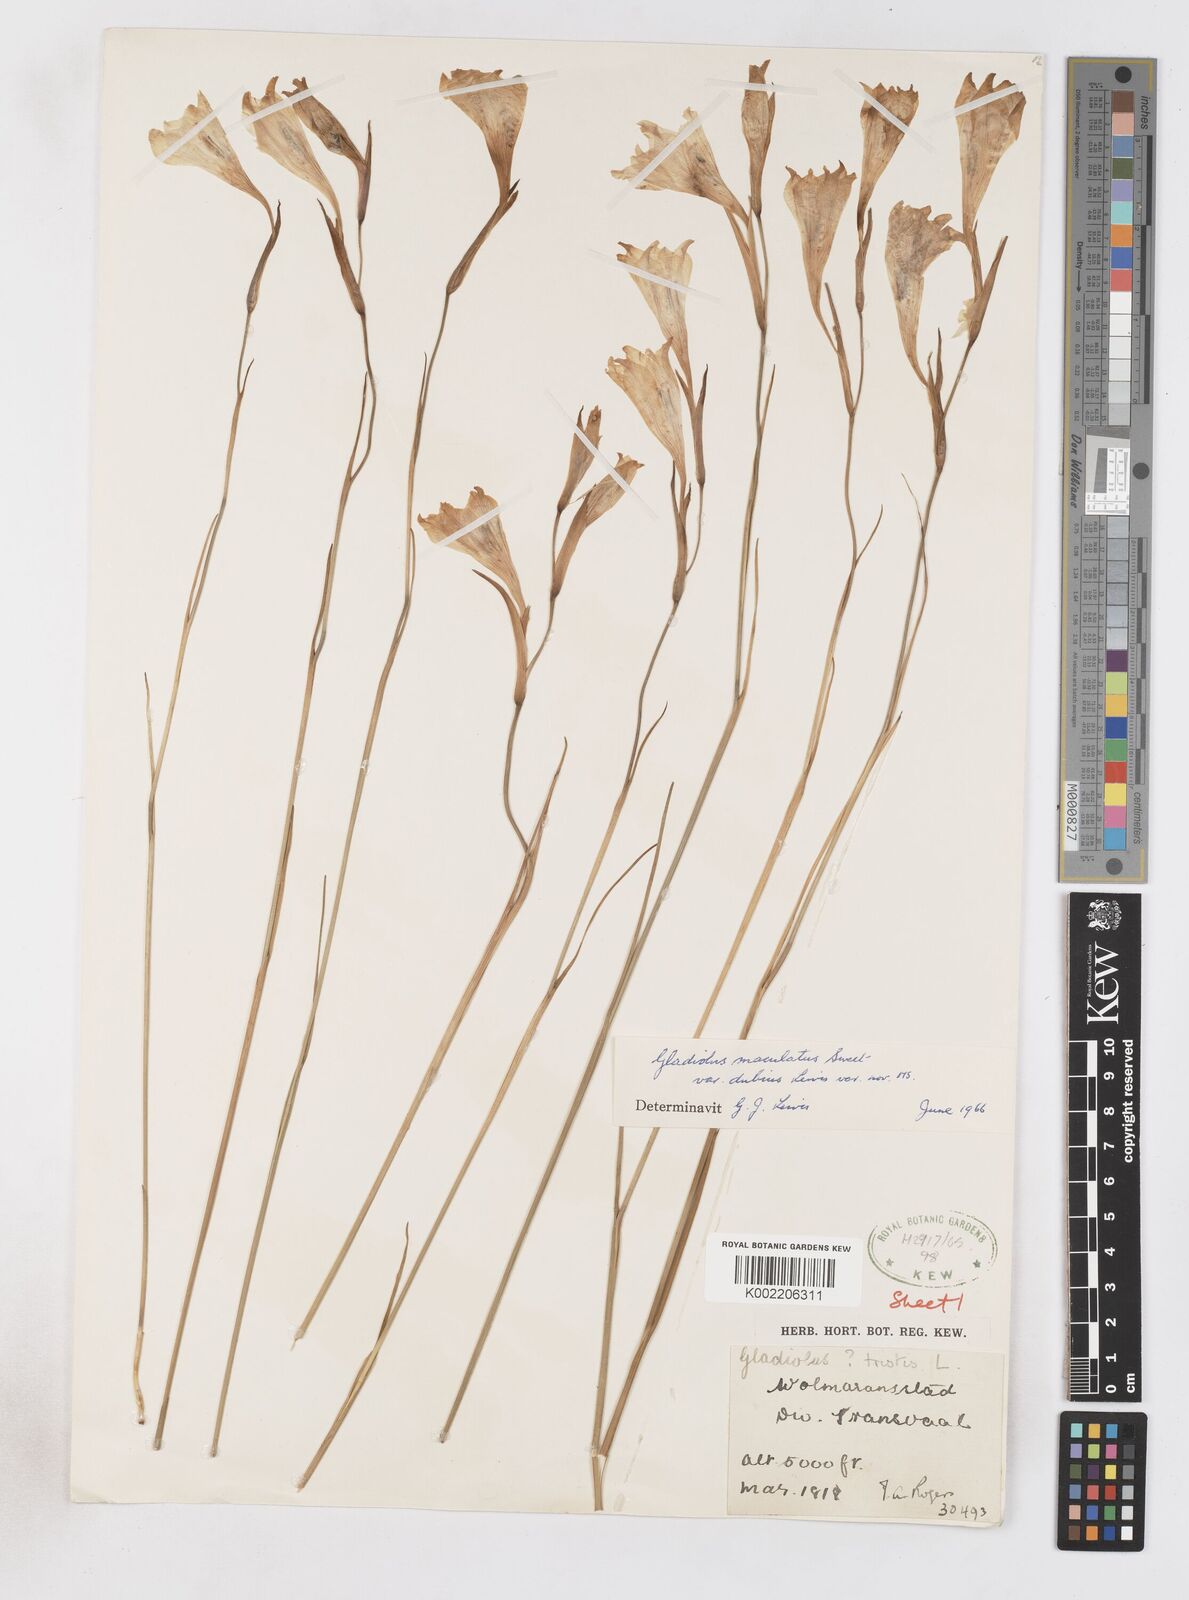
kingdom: Plantae
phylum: Tracheophyta
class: Liliopsida
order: Asparagales
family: Iridaceae
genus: Gladiolus
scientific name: Gladiolus maculatus
